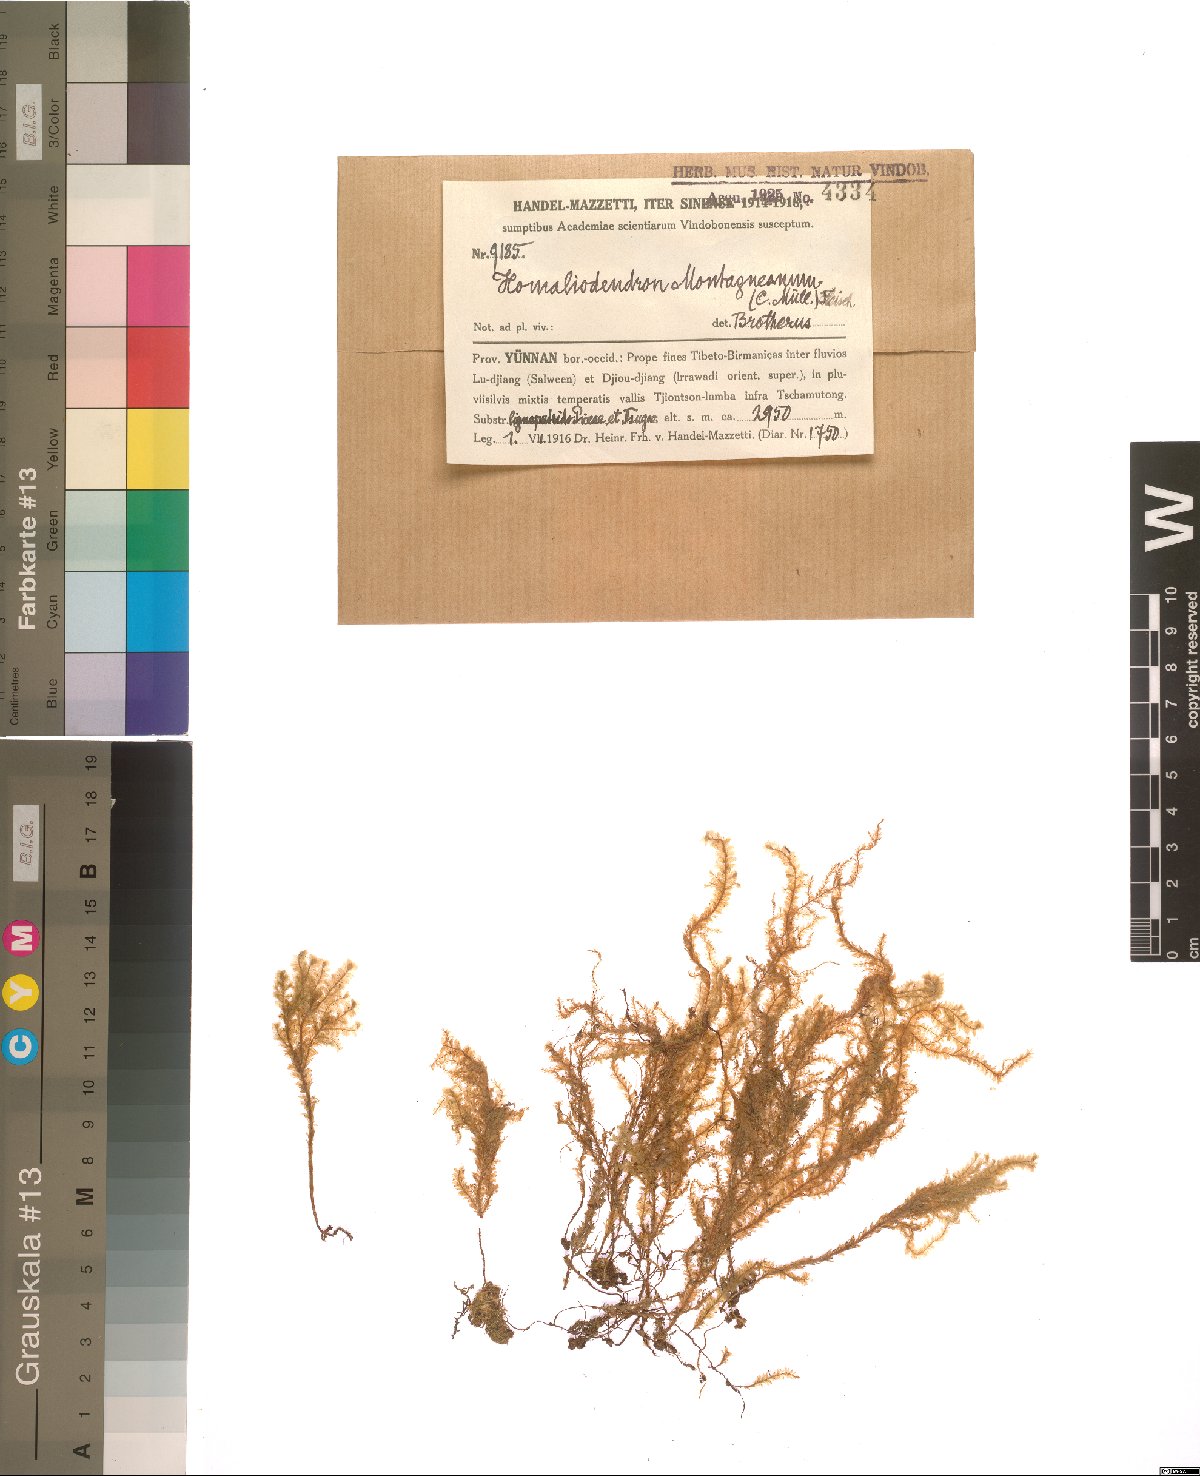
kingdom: Plantae
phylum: Bryophyta
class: Bryopsida
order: Hypnales
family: Neckeraceae
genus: Homaliodendron
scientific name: Homaliodendron montagneanum
